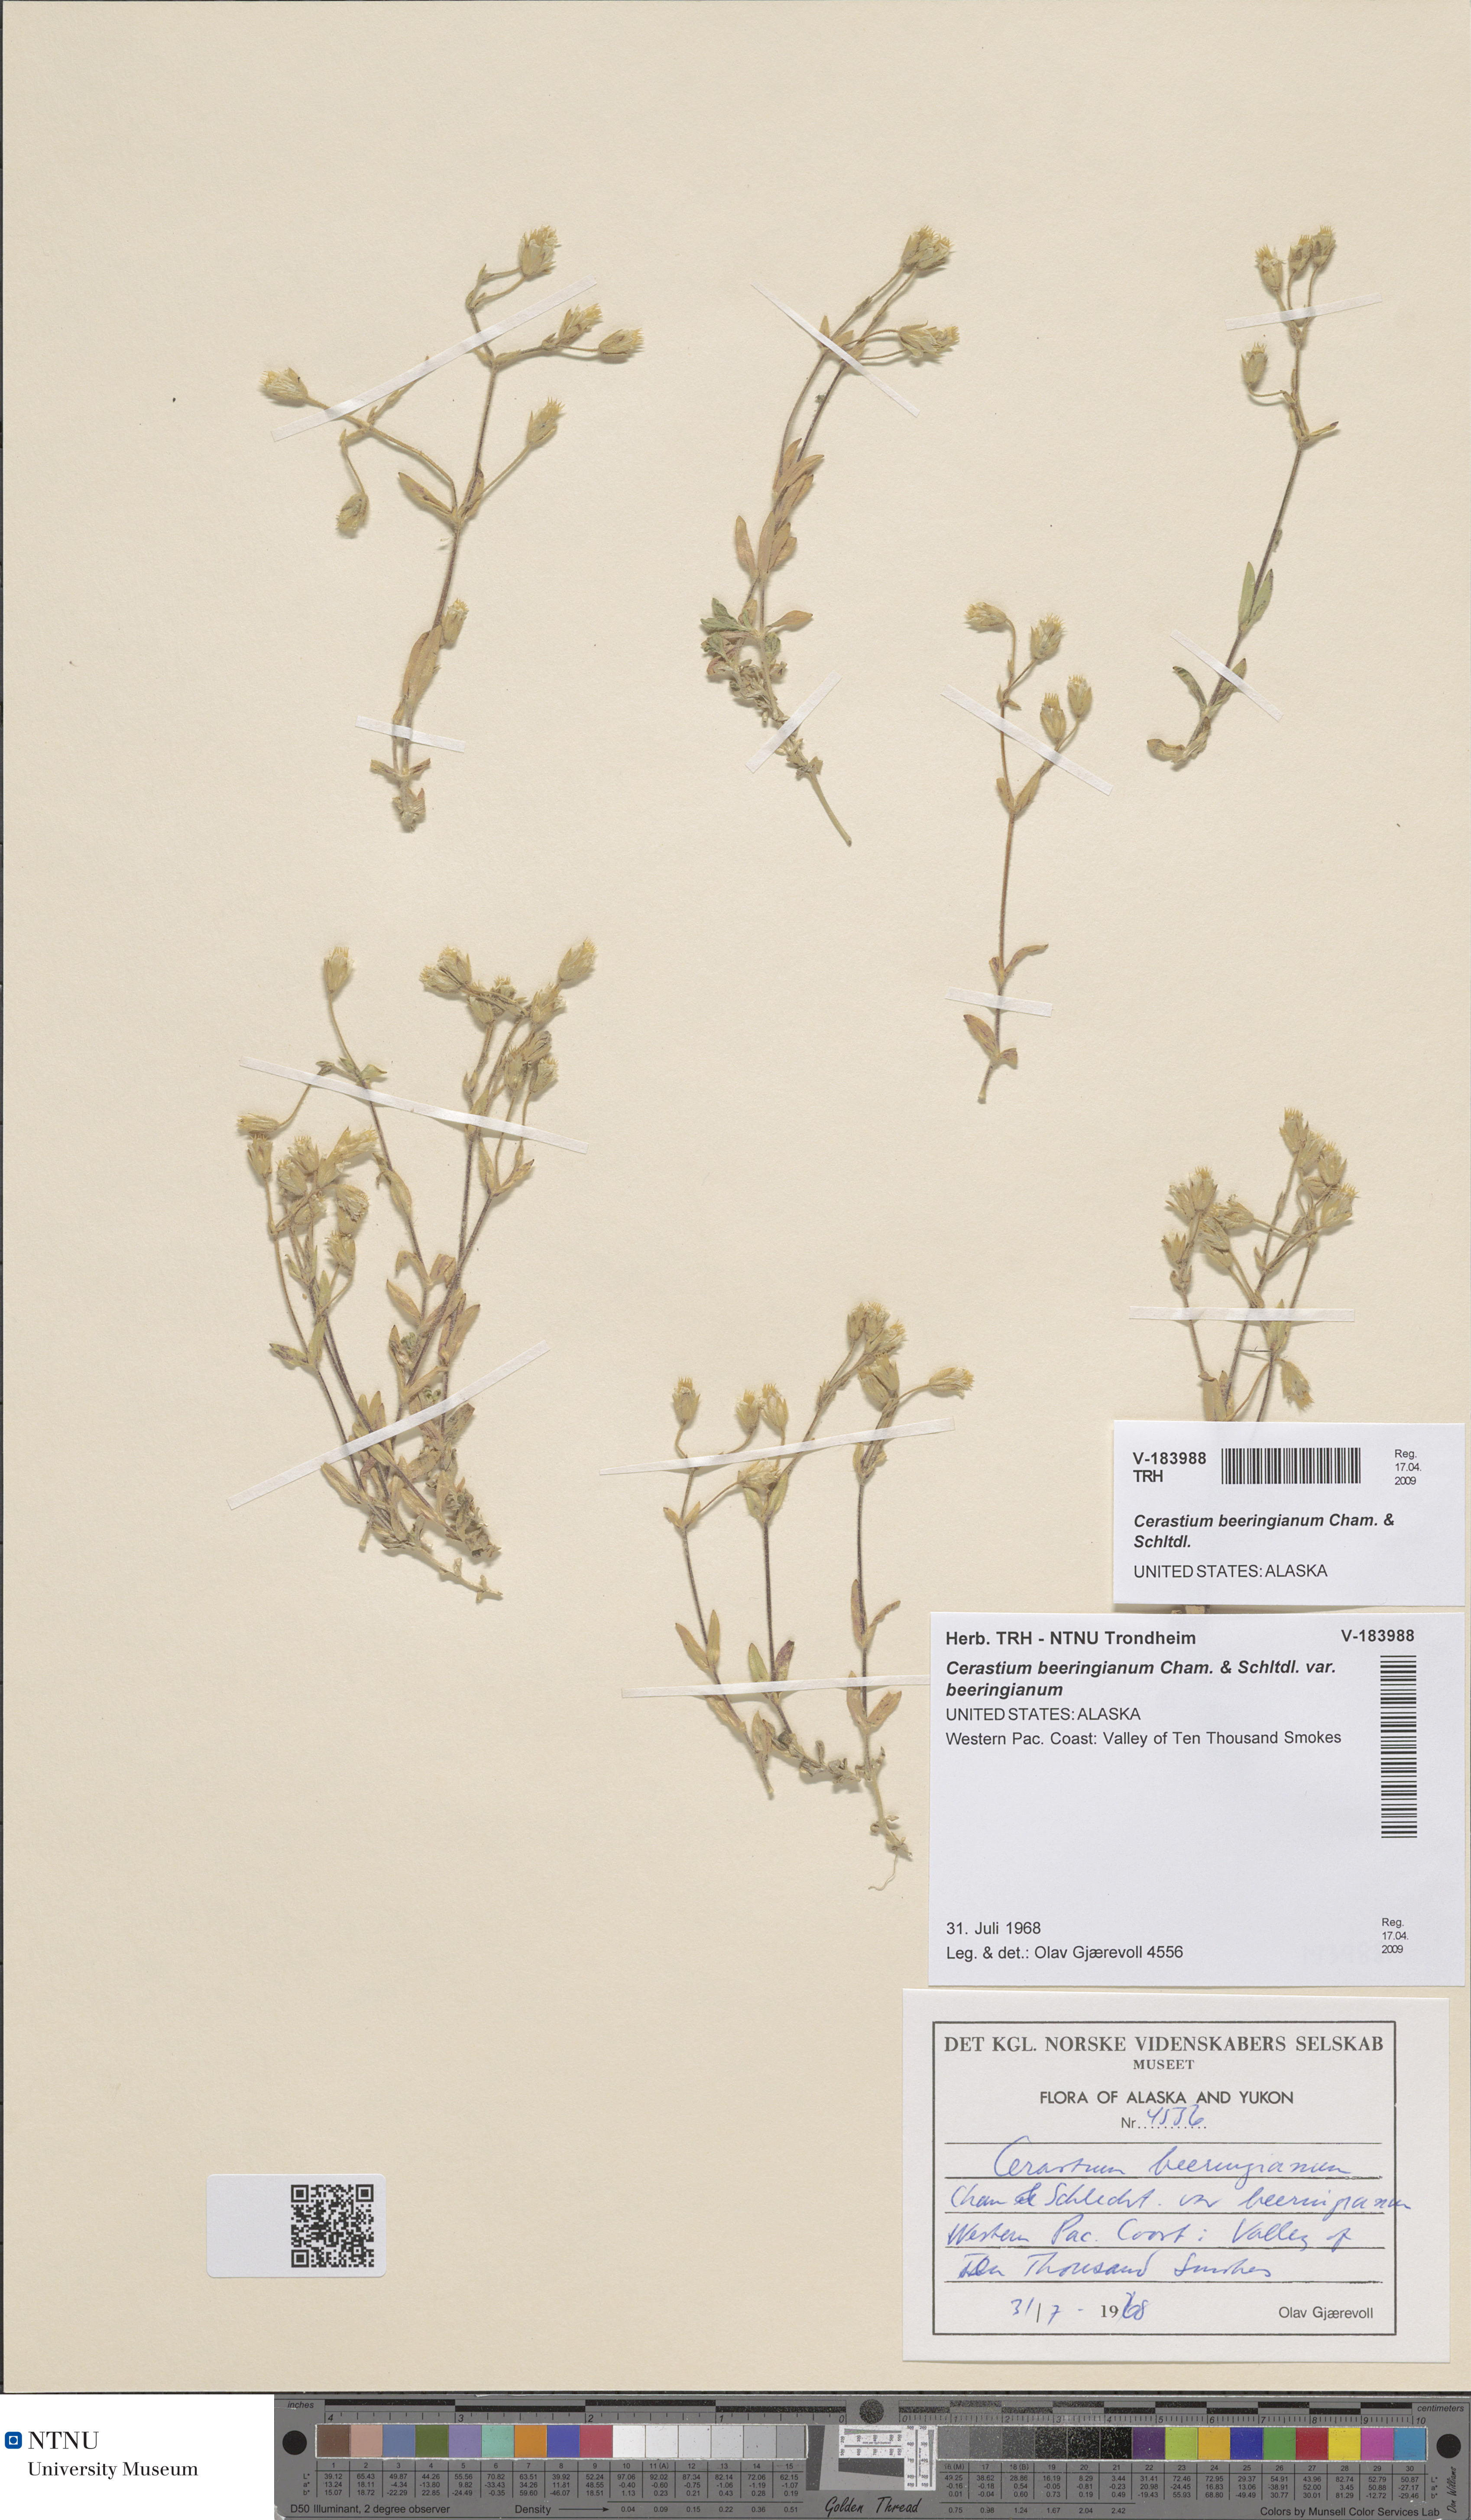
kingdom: Plantae
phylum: Tracheophyta
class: Magnoliopsida
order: Caryophyllales
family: Caryophyllaceae
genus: Cerastium
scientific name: Cerastium beeringianum
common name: Bering mouse-ear chickweed
